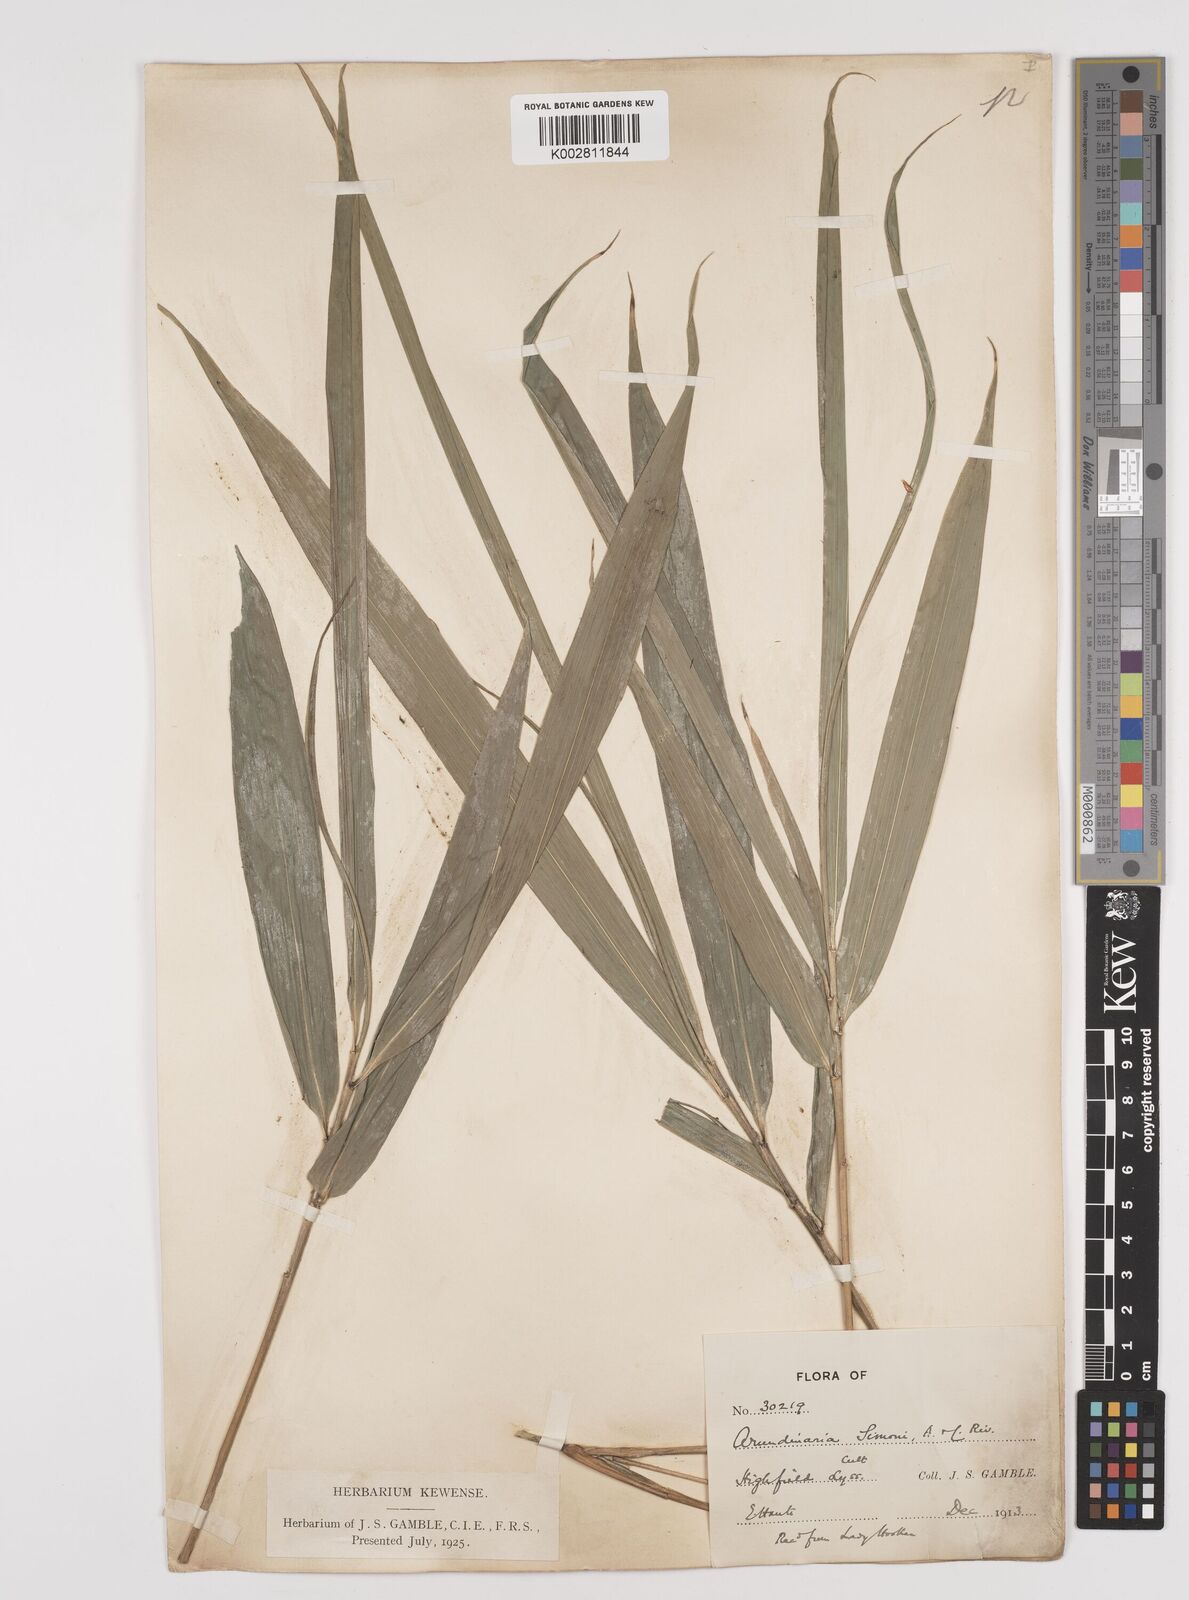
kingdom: Plantae
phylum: Tracheophyta
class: Liliopsida
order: Poales
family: Poaceae
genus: Pleioblastus
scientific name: Pleioblastus simonii
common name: Simon bamboo
